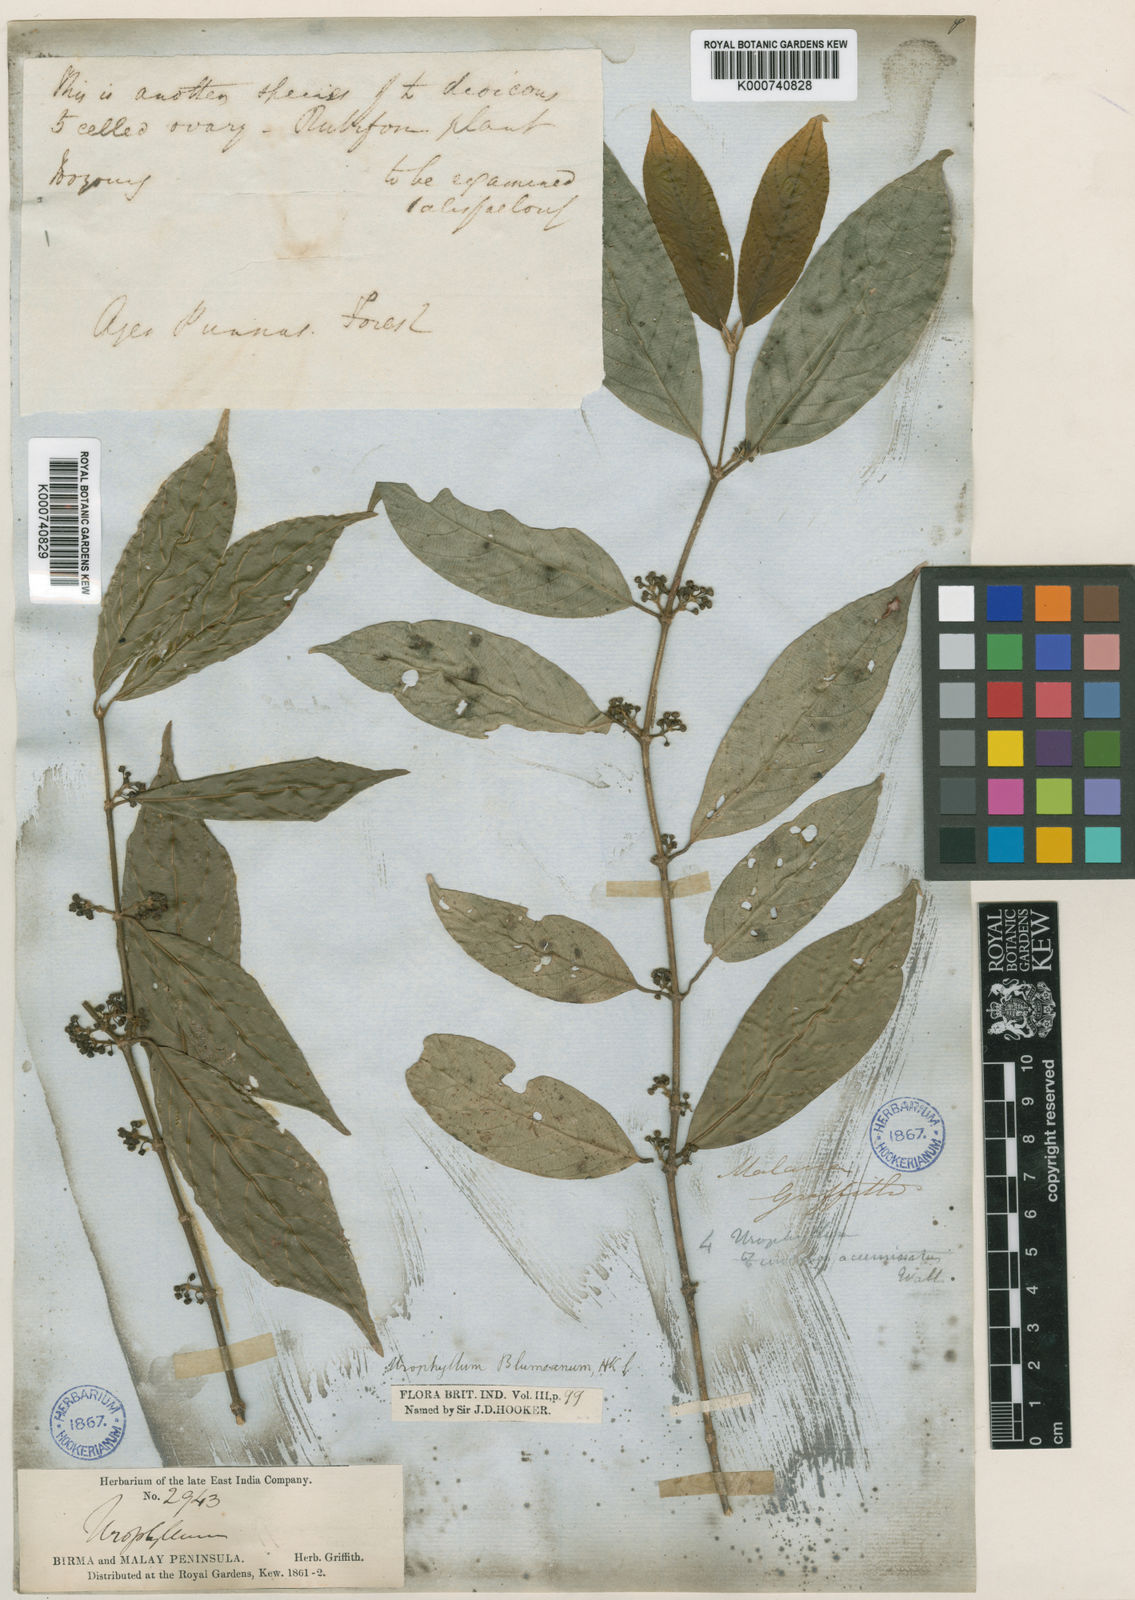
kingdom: Plantae
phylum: Tracheophyta
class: Magnoliopsida
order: Gentianales
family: Rubiaceae
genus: Urophyllum
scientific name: Urophyllum glabrum
